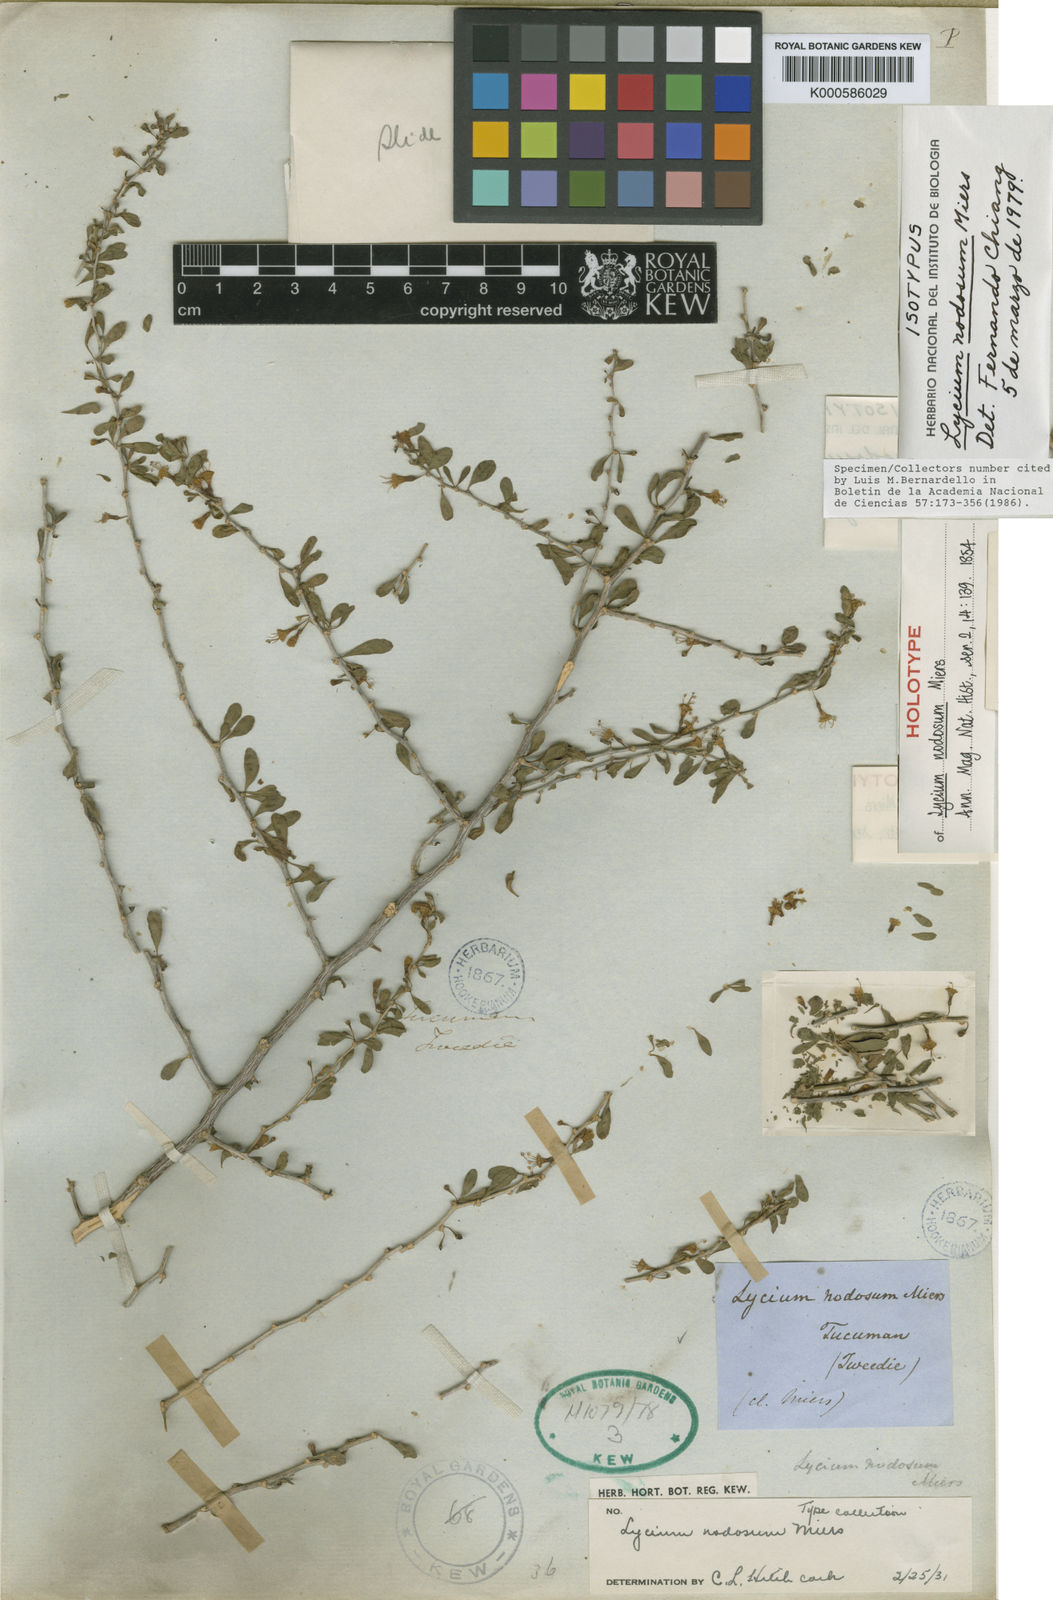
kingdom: Plantae
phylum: Tracheophyta
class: Magnoliopsida
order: Solanales
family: Solanaceae
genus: Lycium
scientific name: Lycium nodosum
